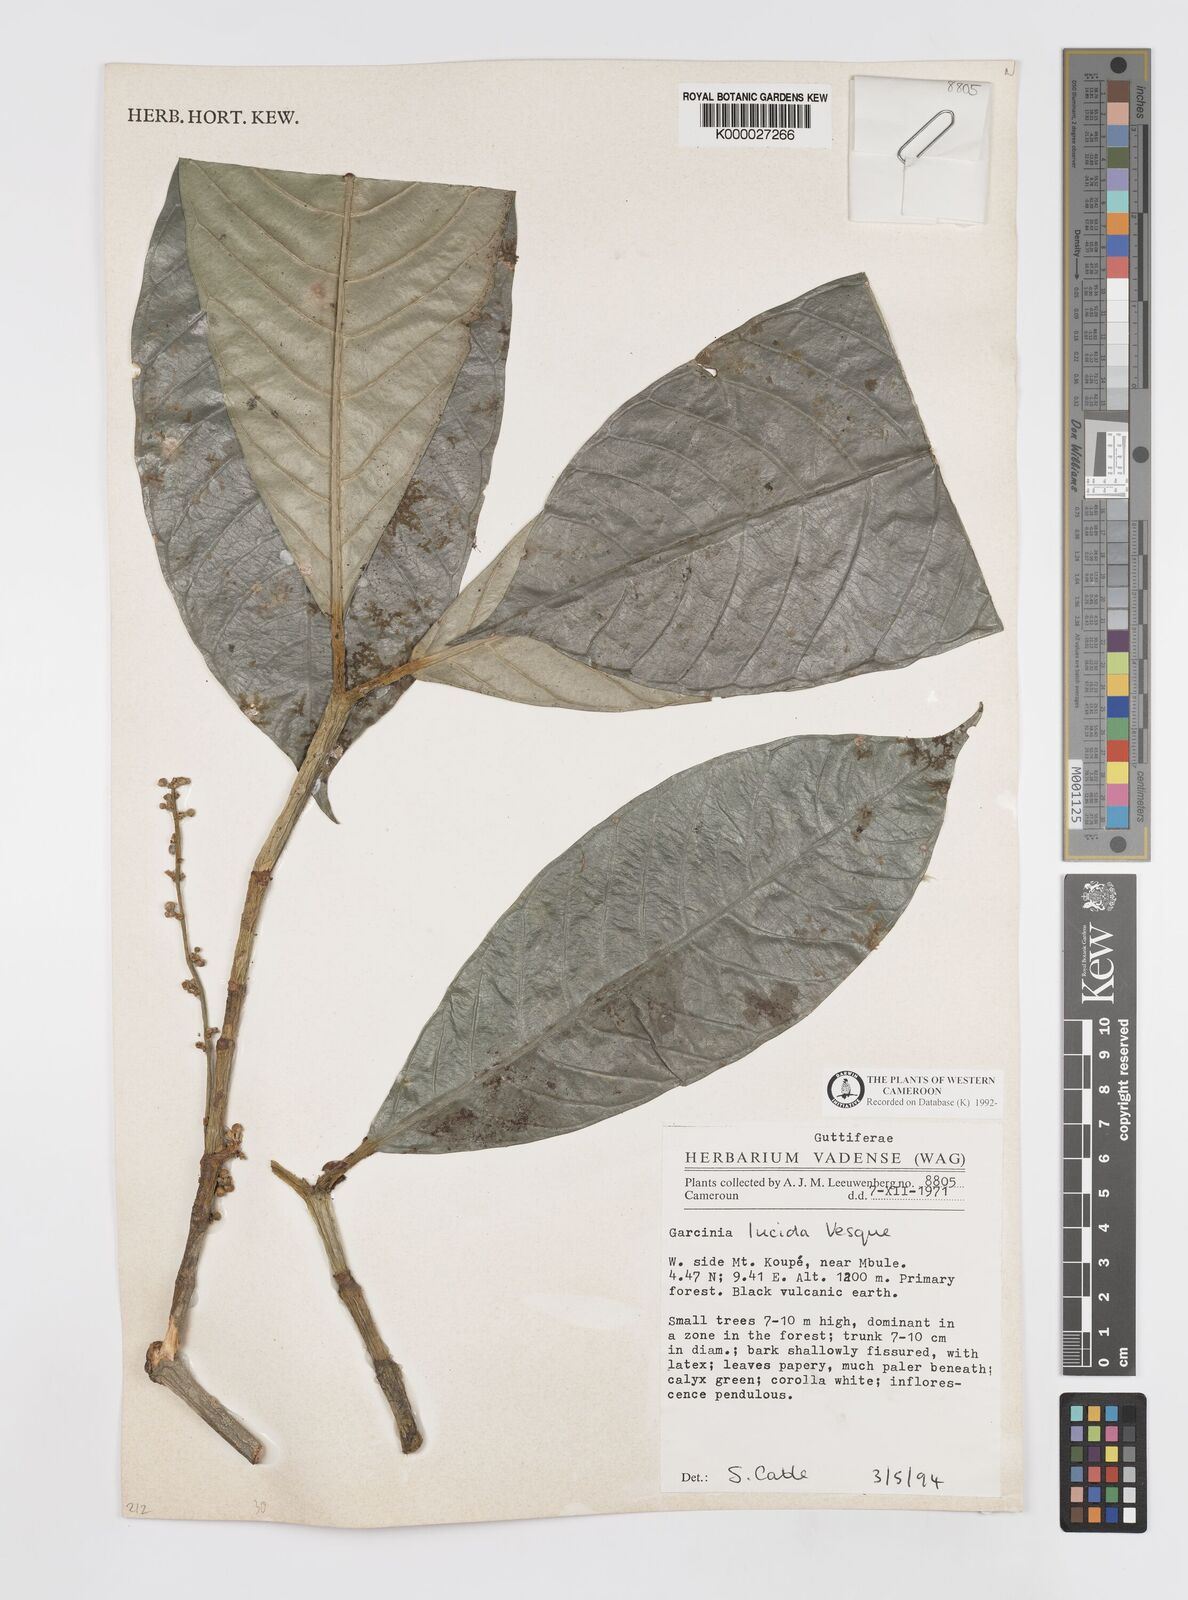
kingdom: Plantae
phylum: Tracheophyta
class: Magnoliopsida
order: Malpighiales
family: Clusiaceae
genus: Garcinia
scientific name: Garcinia lucida
